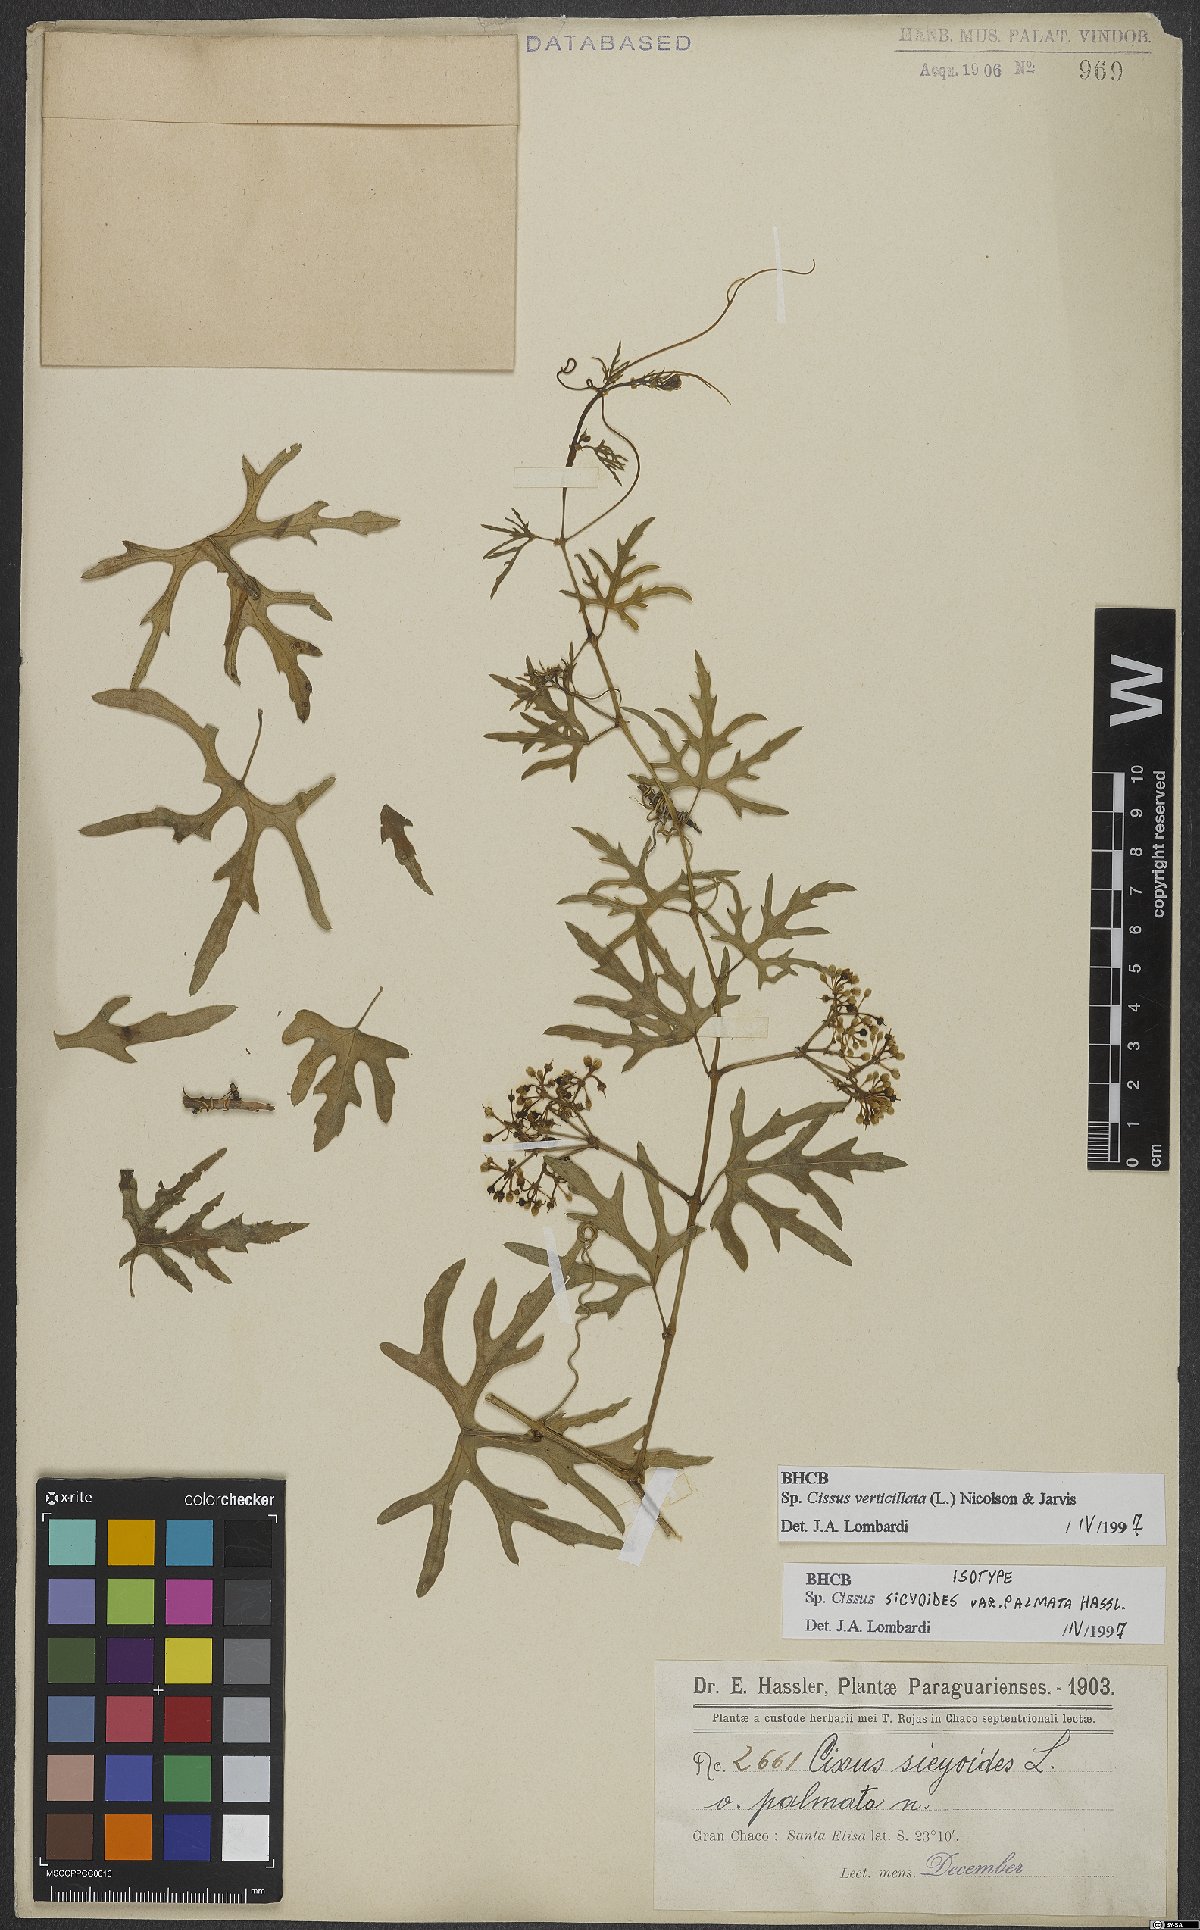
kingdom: Plantae
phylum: Tracheophyta
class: Magnoliopsida
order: Vitales
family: Vitaceae
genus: Cissus
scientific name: Cissus verticillata
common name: Princess vine
